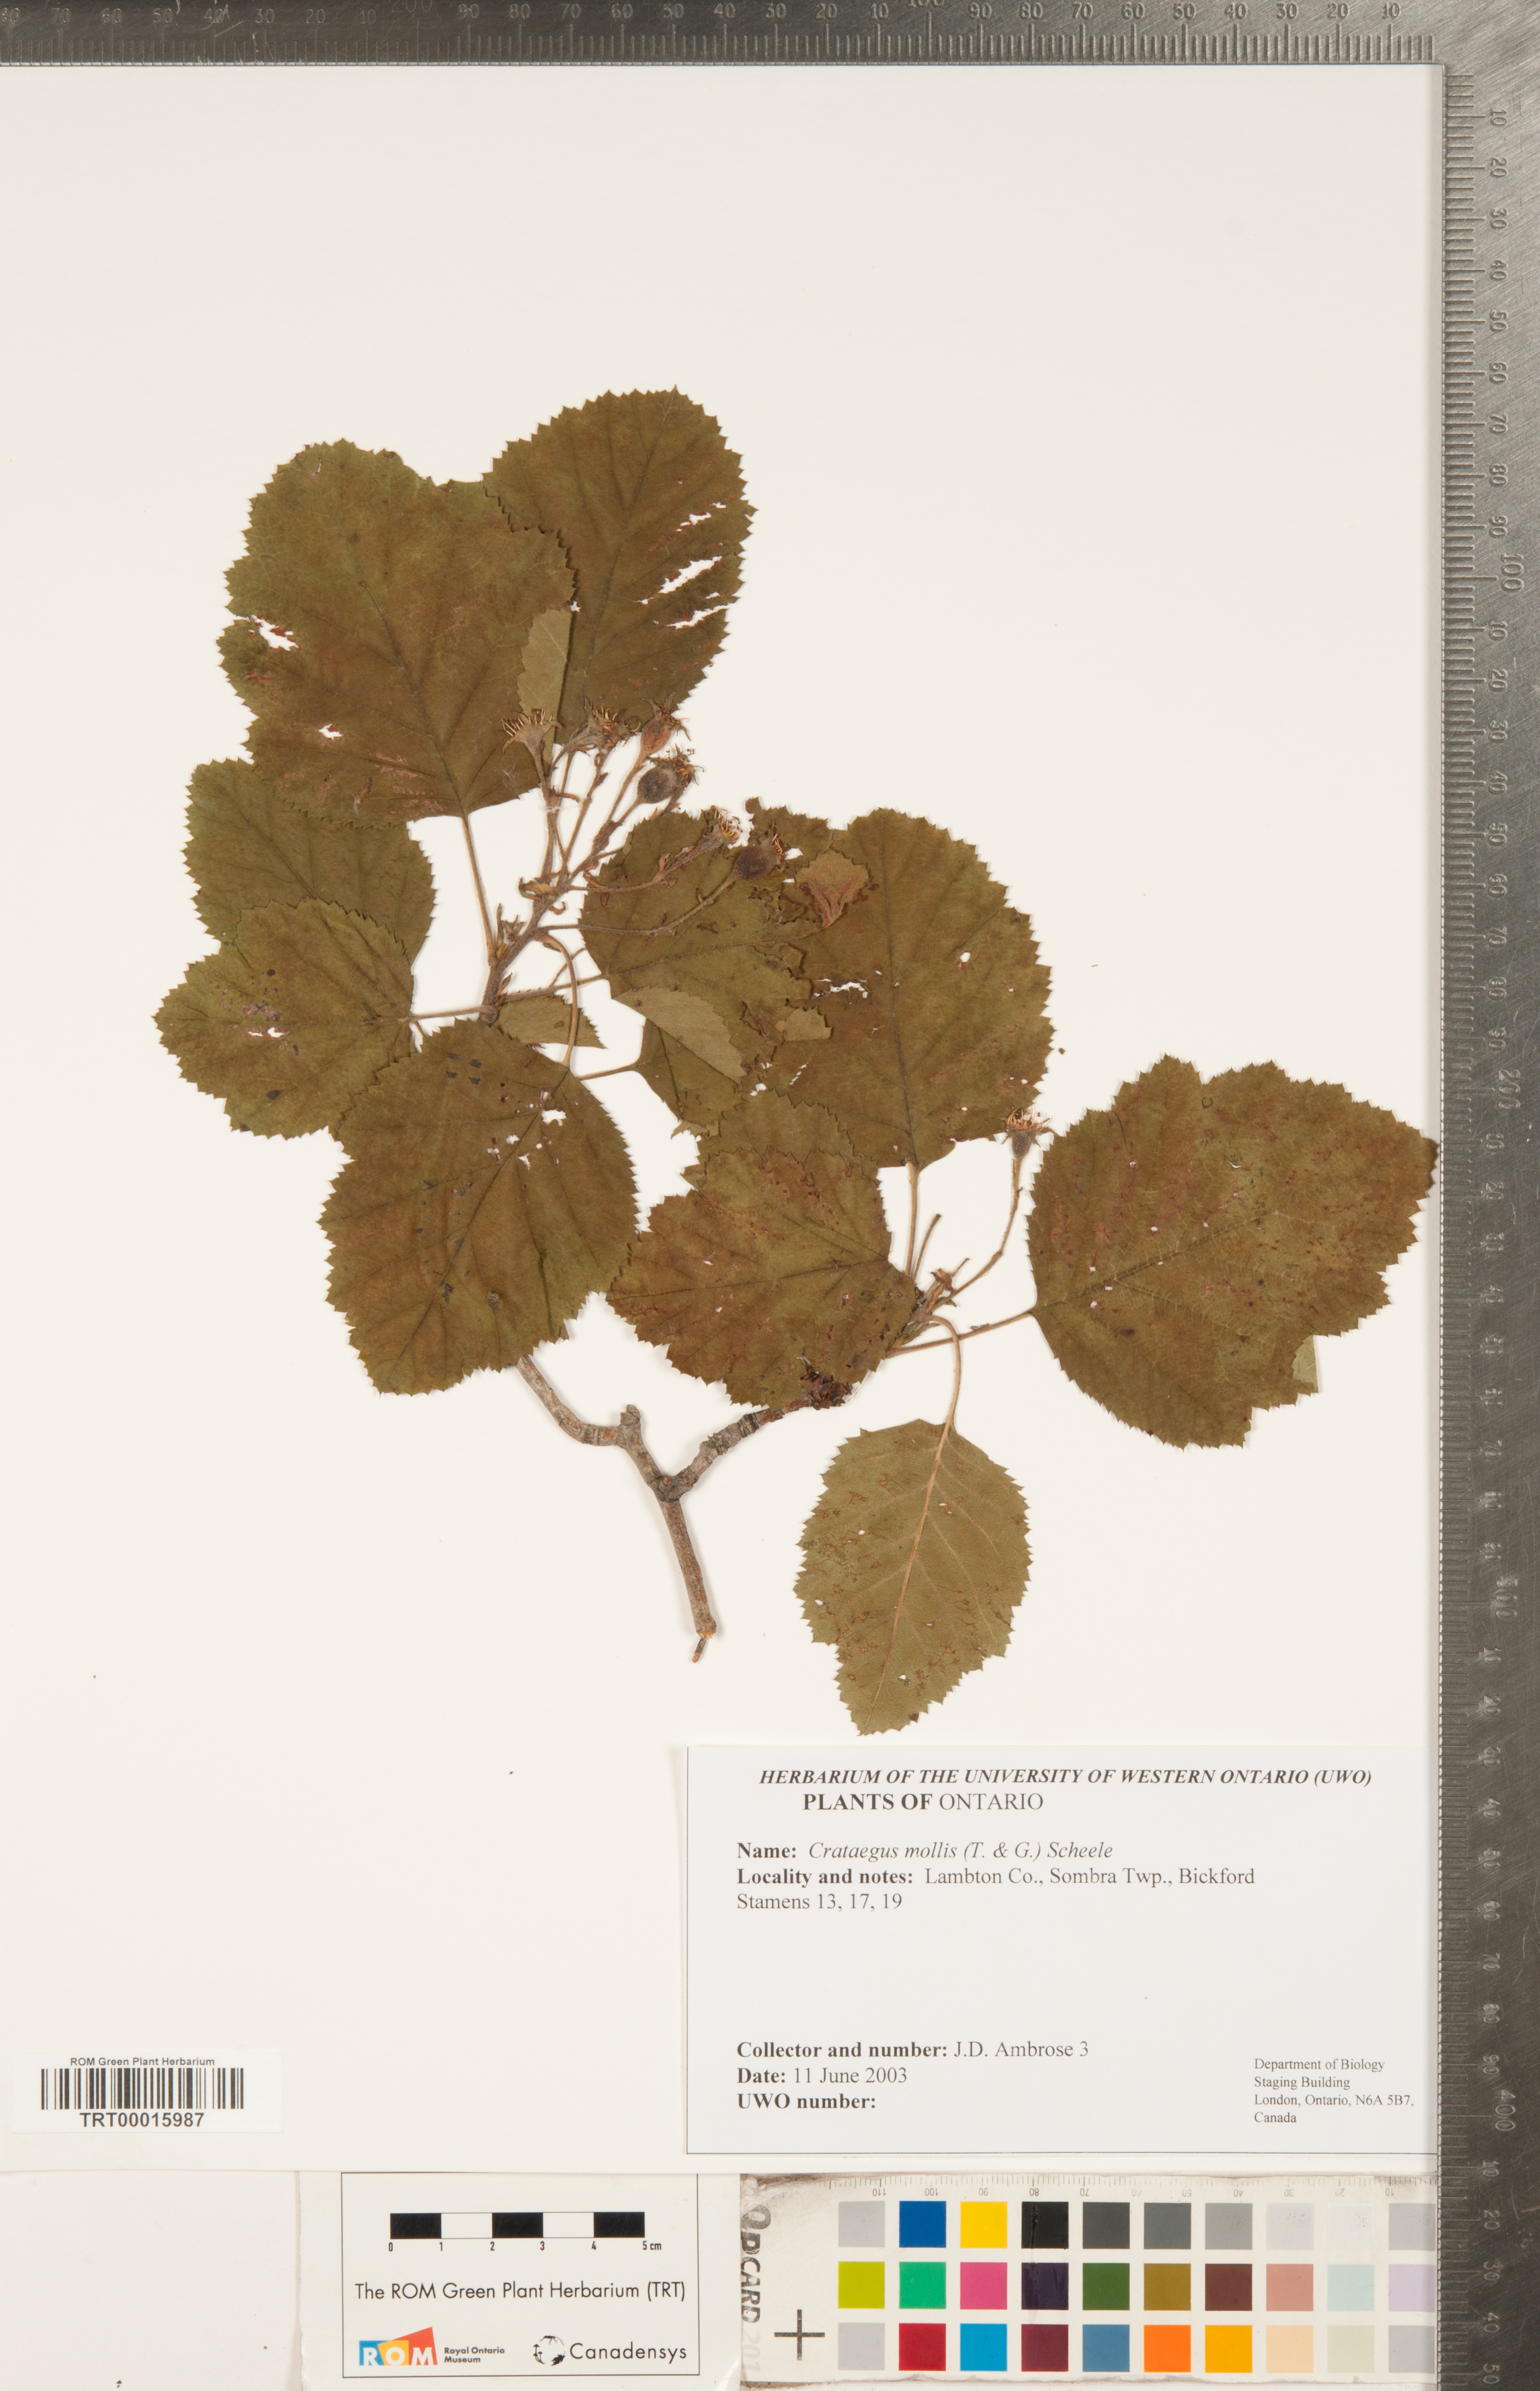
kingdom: Plantae
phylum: Tracheophyta
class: Magnoliopsida
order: Rosales
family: Rosaceae
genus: Crataegus
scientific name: Crataegus mollis
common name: Downy hawthorn
